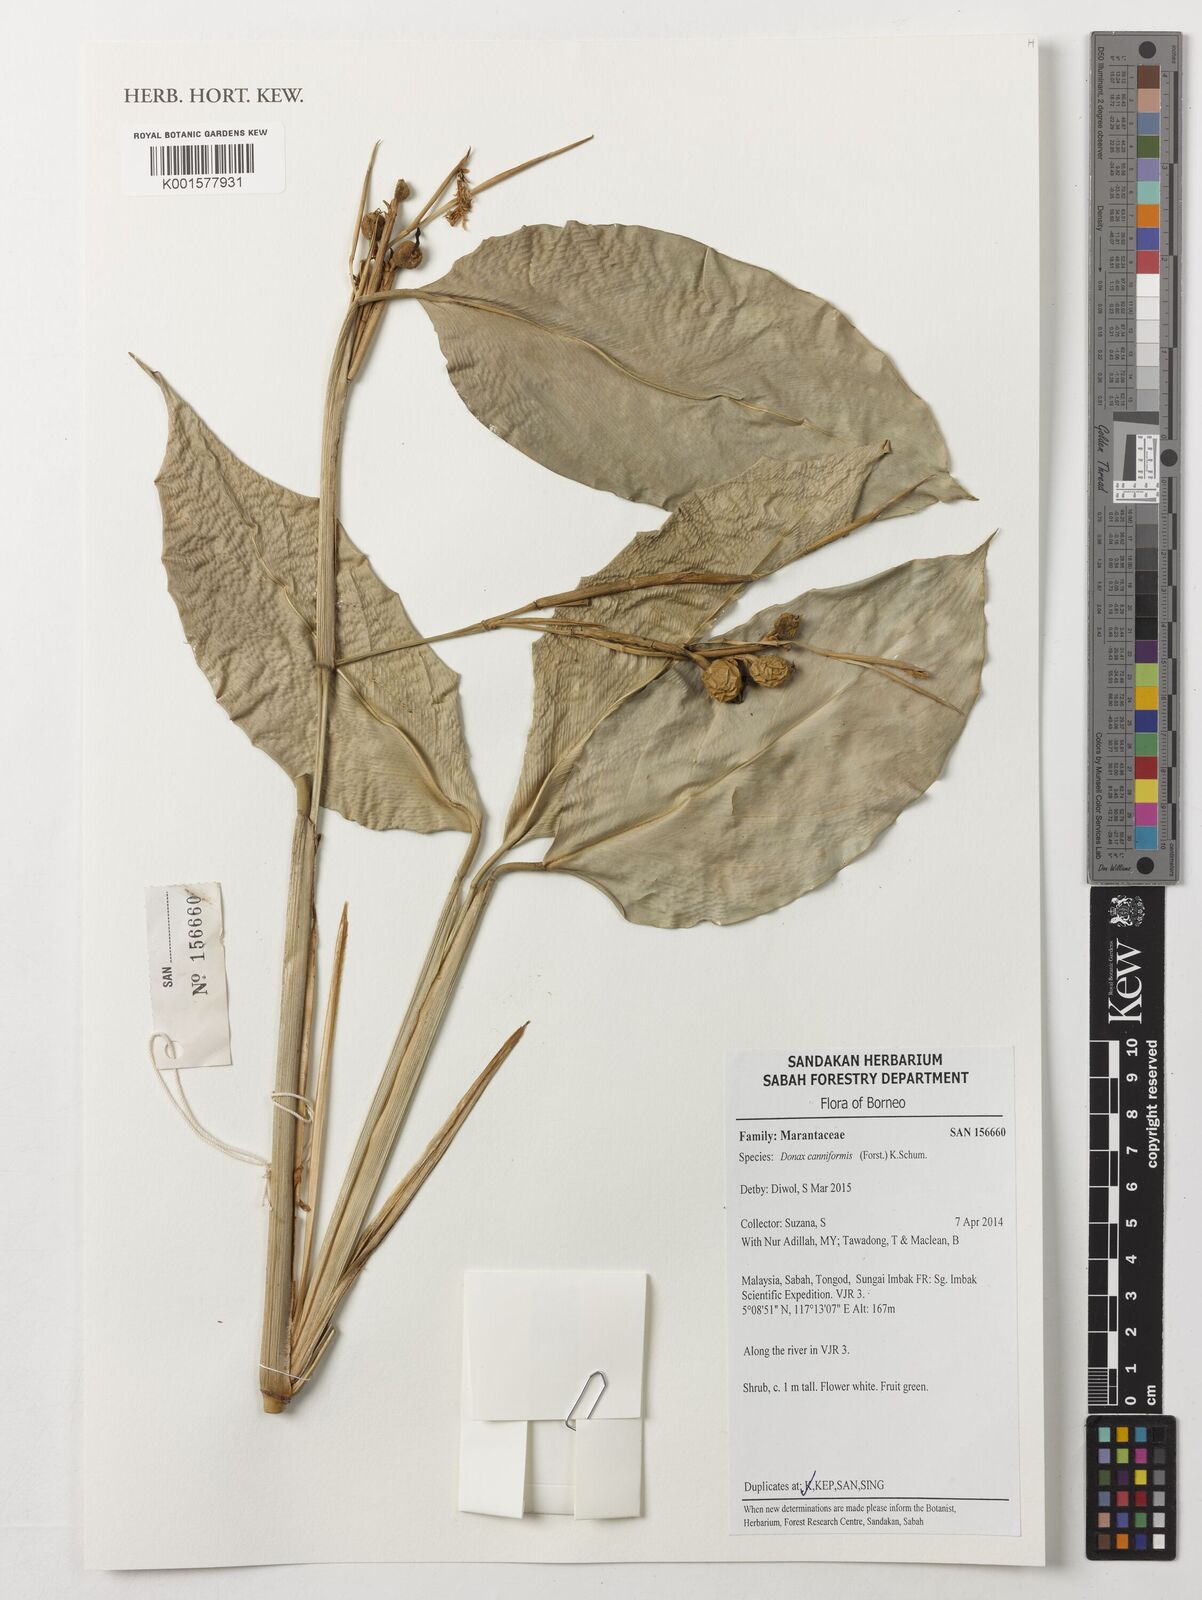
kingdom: Plantae
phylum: Tracheophyta
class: Liliopsida
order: Zingiberales
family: Marantaceae
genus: Donax
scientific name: Donax canniformis
